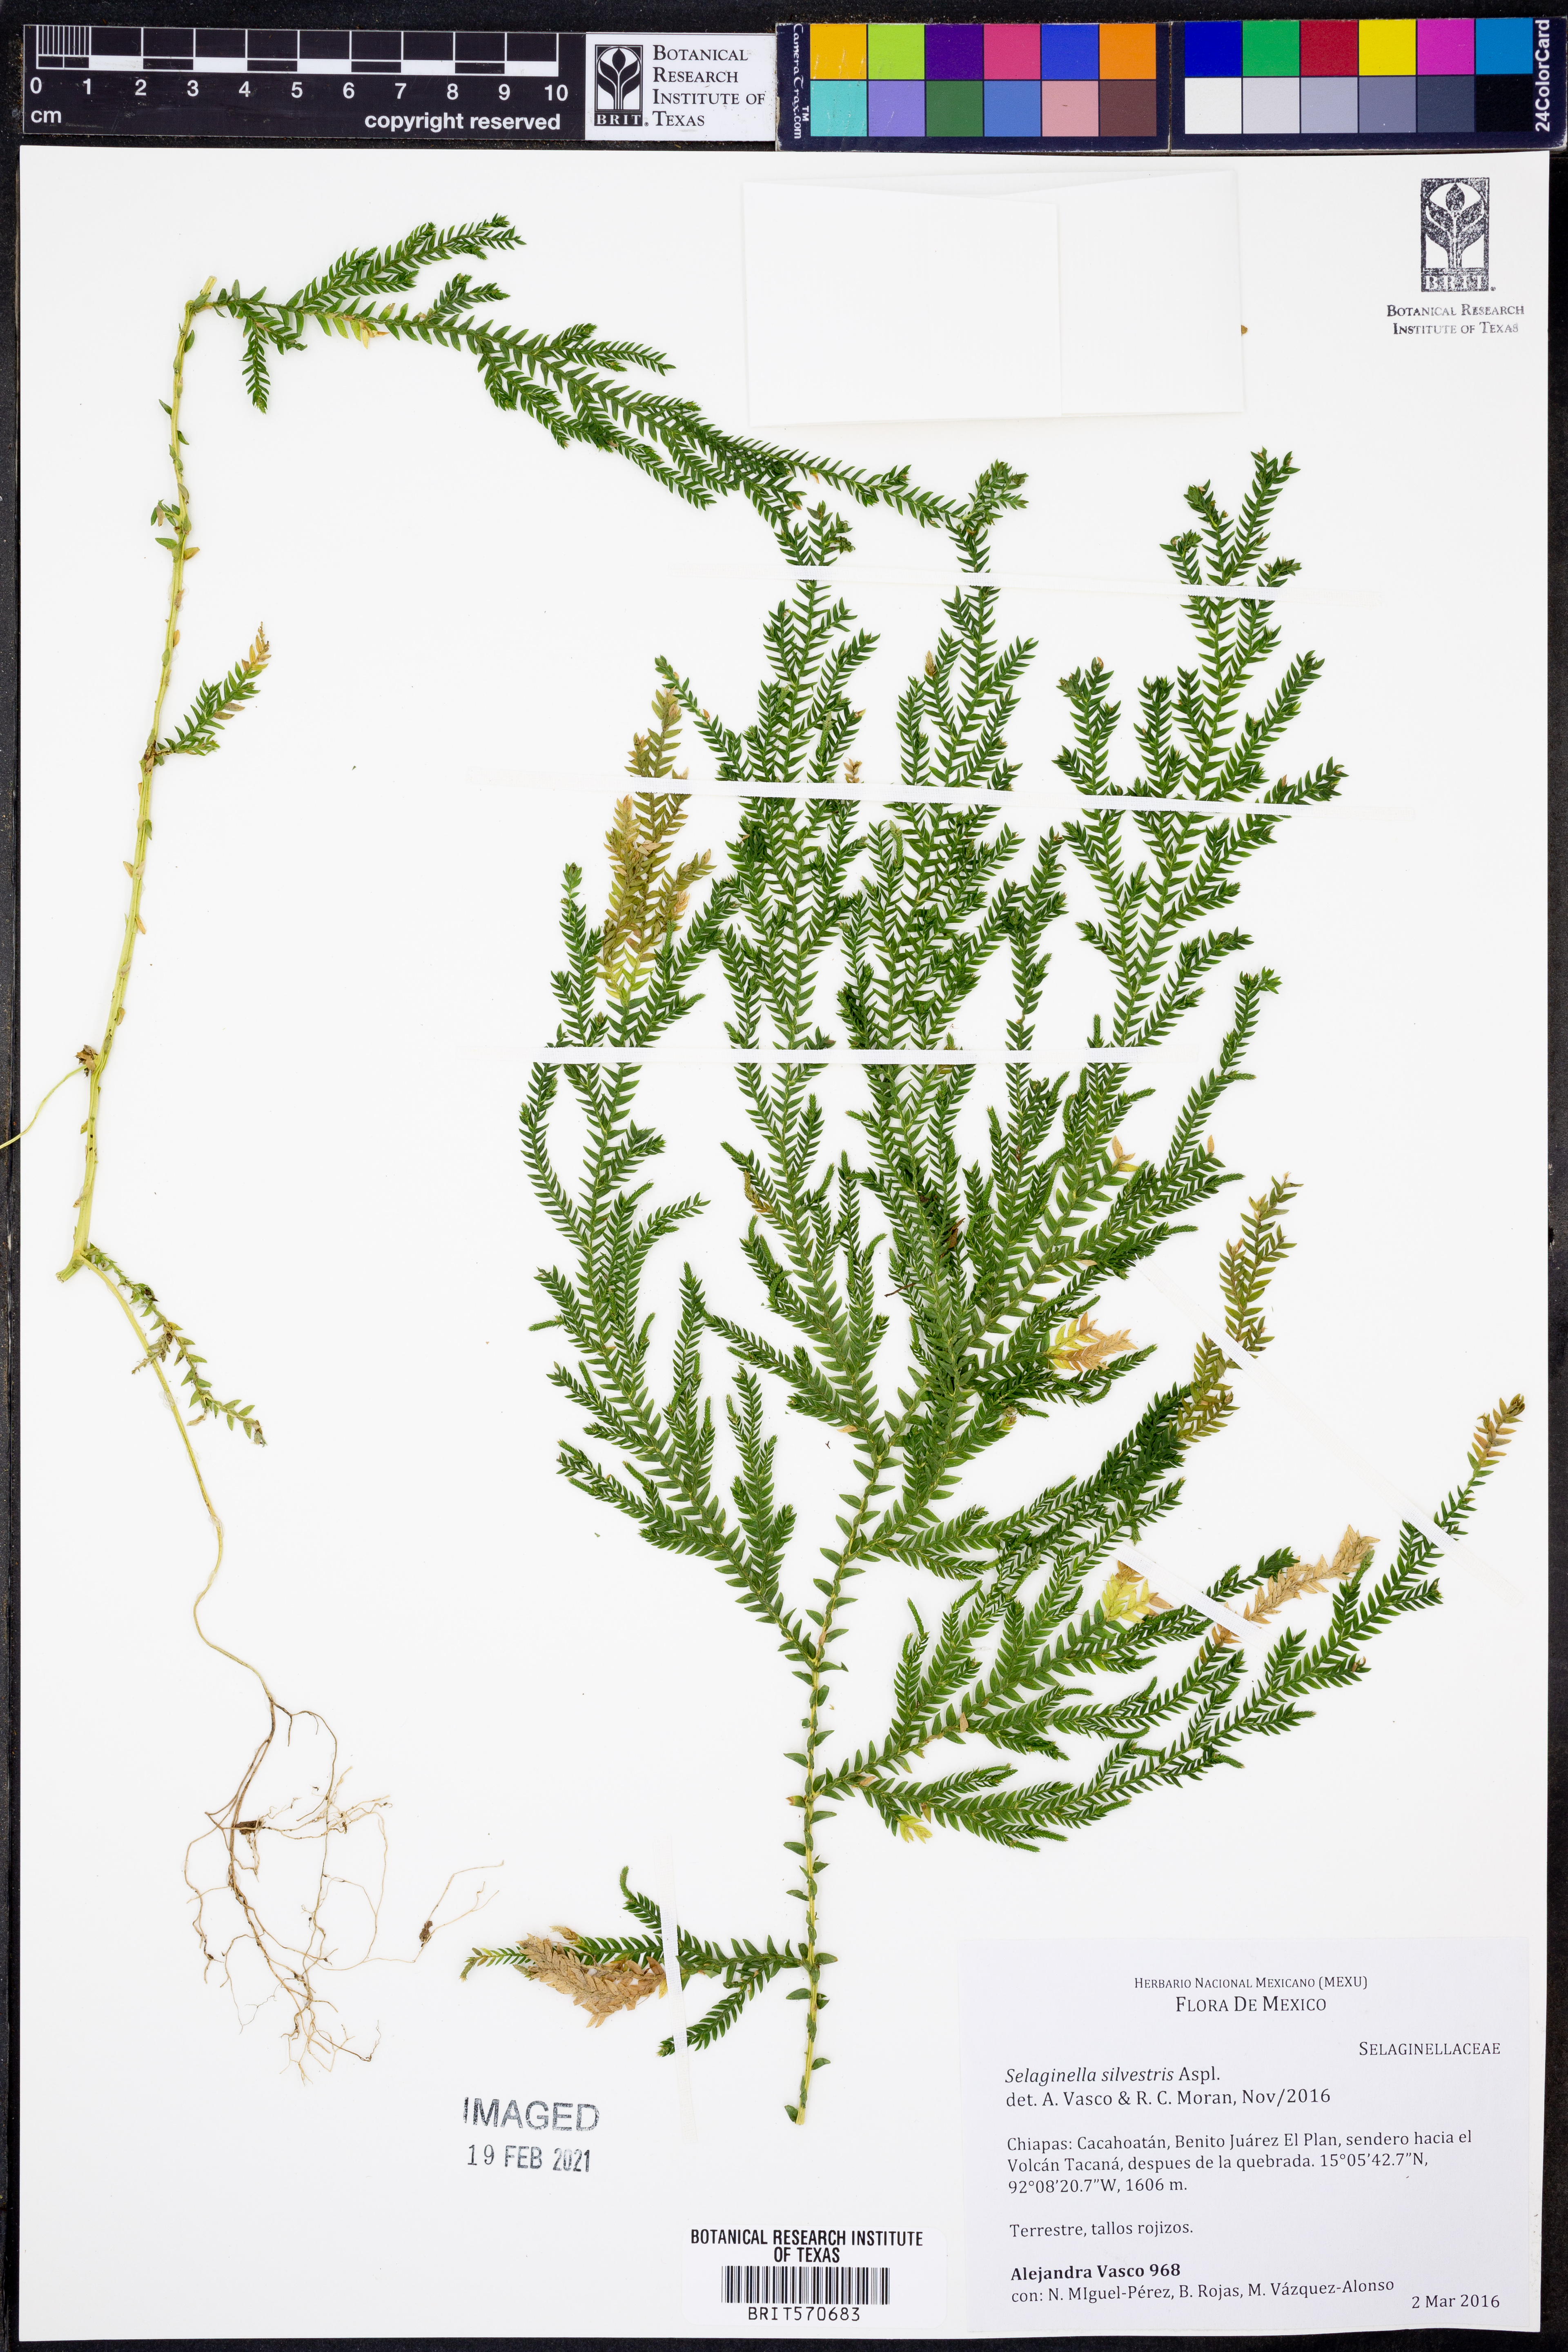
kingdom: Plantae
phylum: Tracheophyta
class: Lycopodiopsida
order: Selaginellales
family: Selaginellaceae
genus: Selaginella
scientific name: Selaginella silvestris
